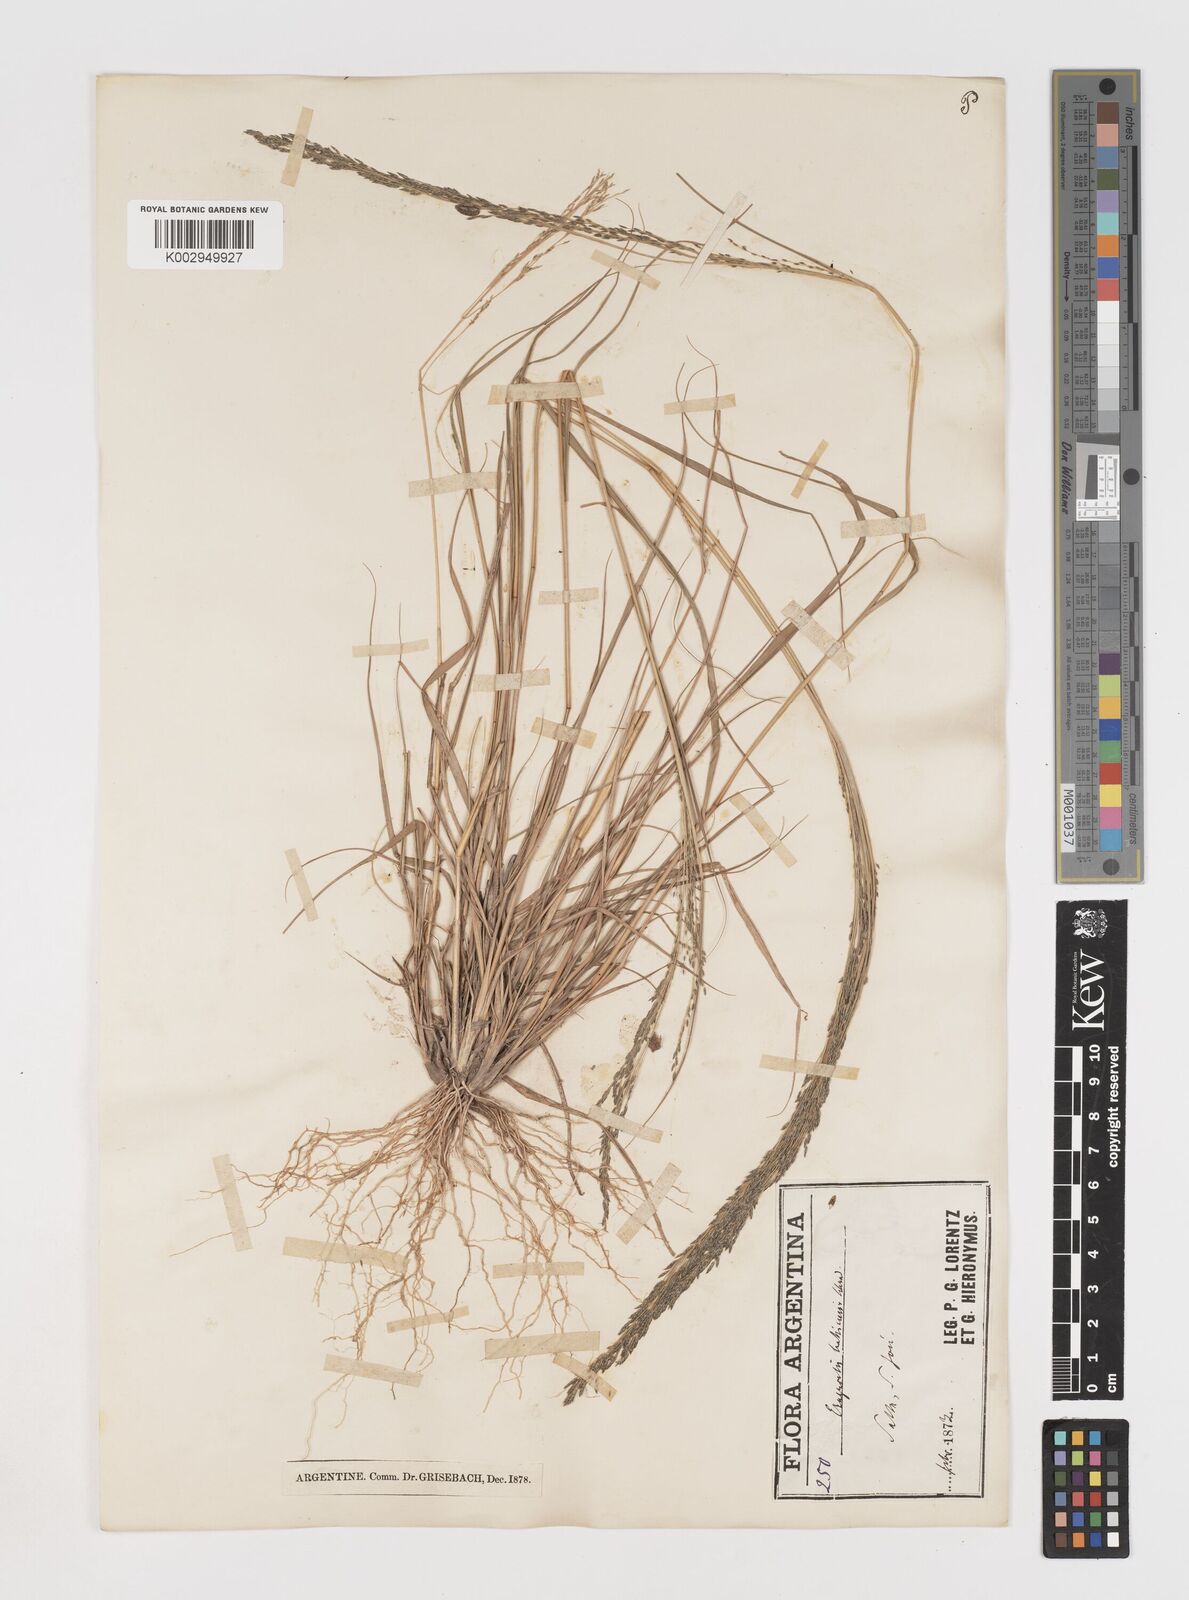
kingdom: Plantae
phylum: Tracheophyta
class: Liliopsida
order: Poales
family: Poaceae
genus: Eragrostis
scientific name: Eragrostis lugens
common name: Mourning love grass
